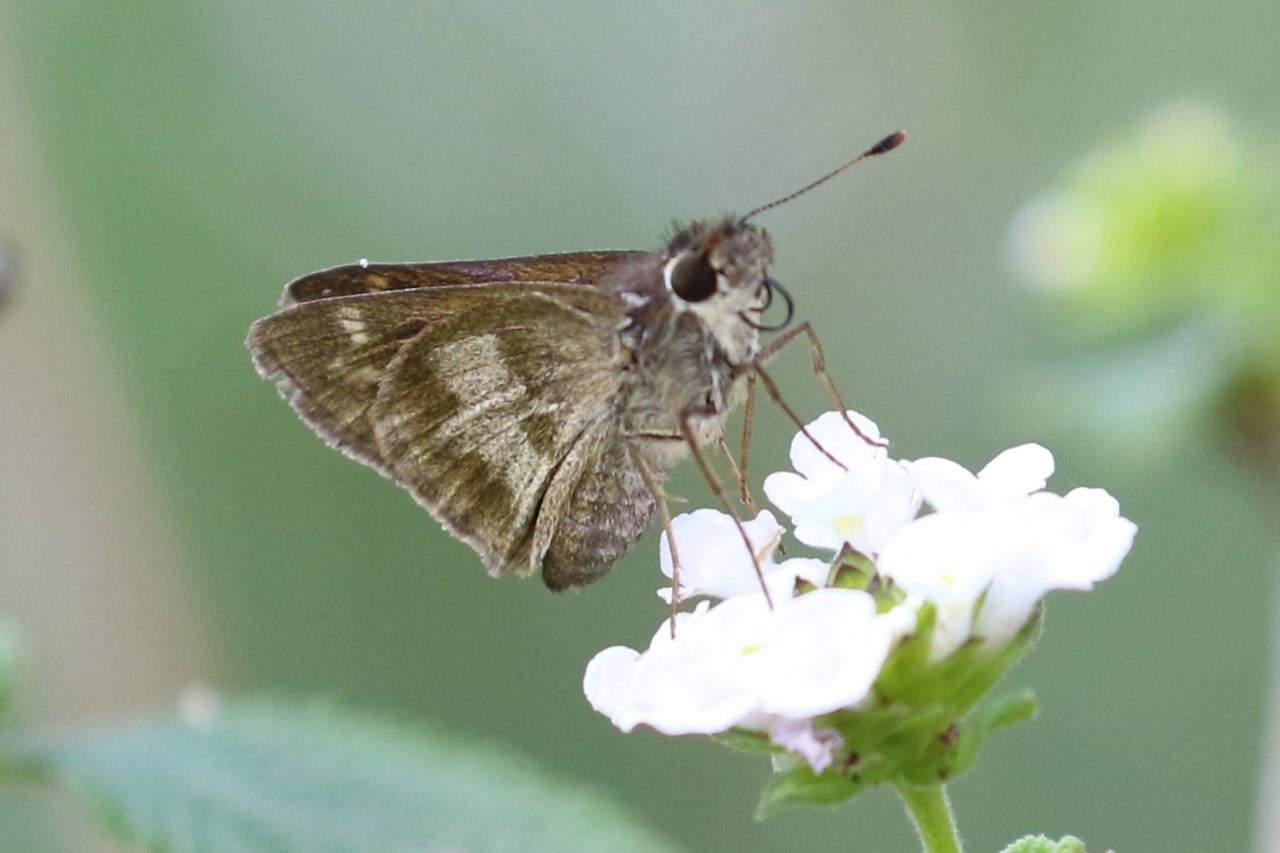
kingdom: Animalia
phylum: Arthropoda
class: Insecta
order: Lepidoptera
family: Hesperiidae
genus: Polites
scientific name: Polites vibex
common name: Whirlabout
